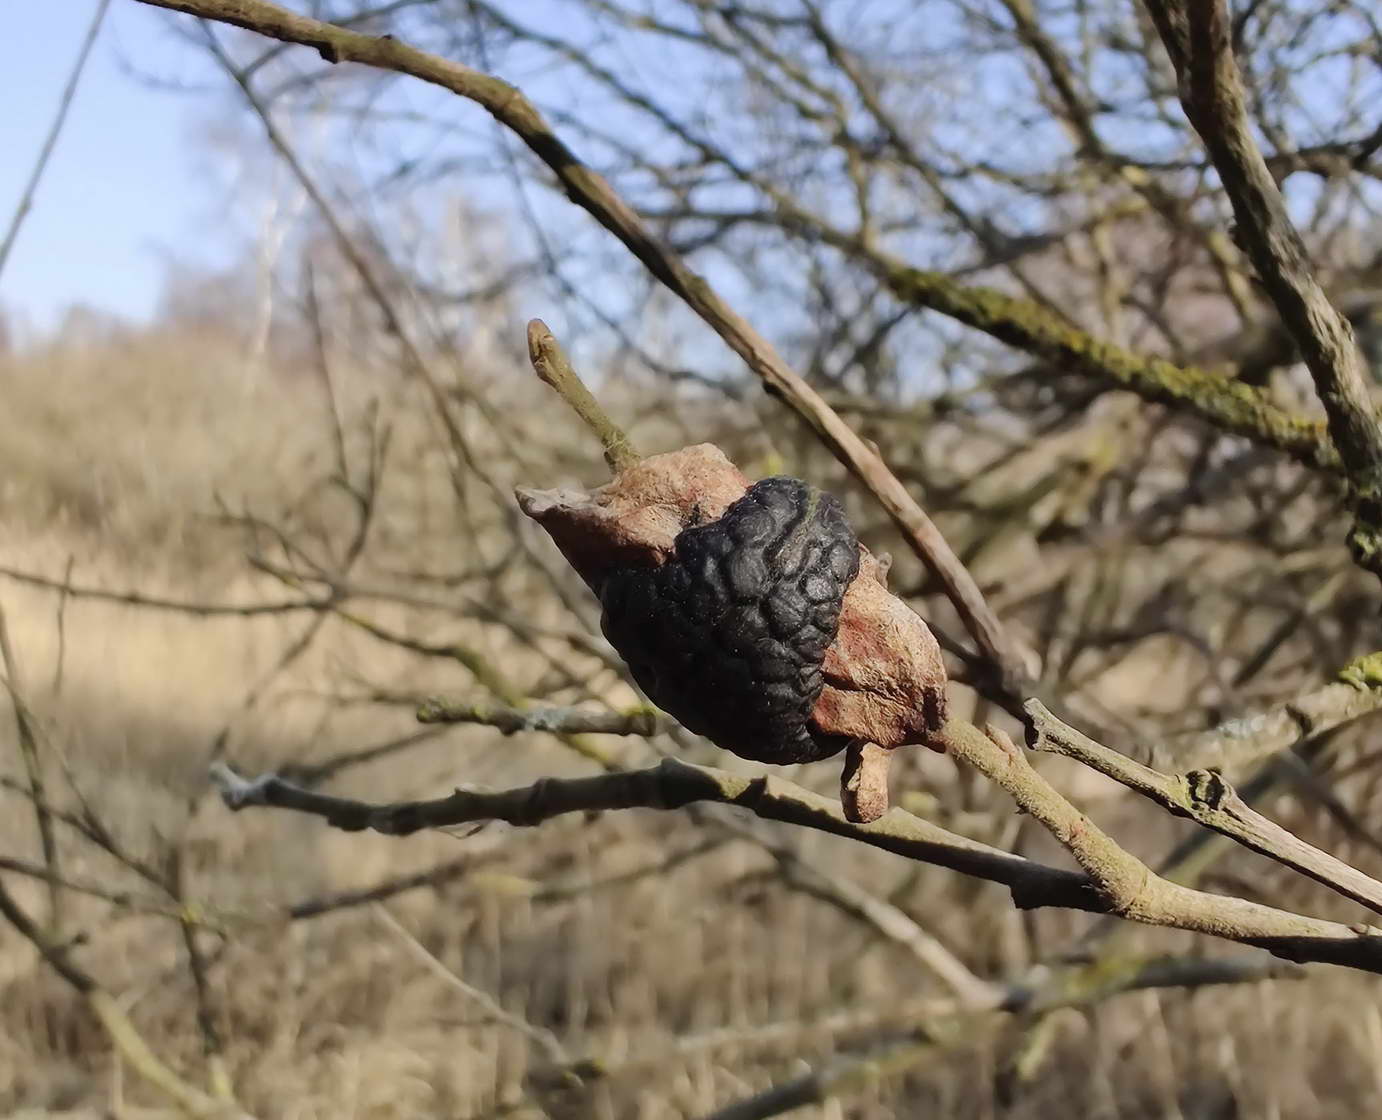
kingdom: Fungi
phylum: Ascomycota
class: Leotiomycetes
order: Rhytismatales
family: Rhytismataceae
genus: Rhytisma
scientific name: Rhytisma salicinum
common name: pile-rynkeplet
